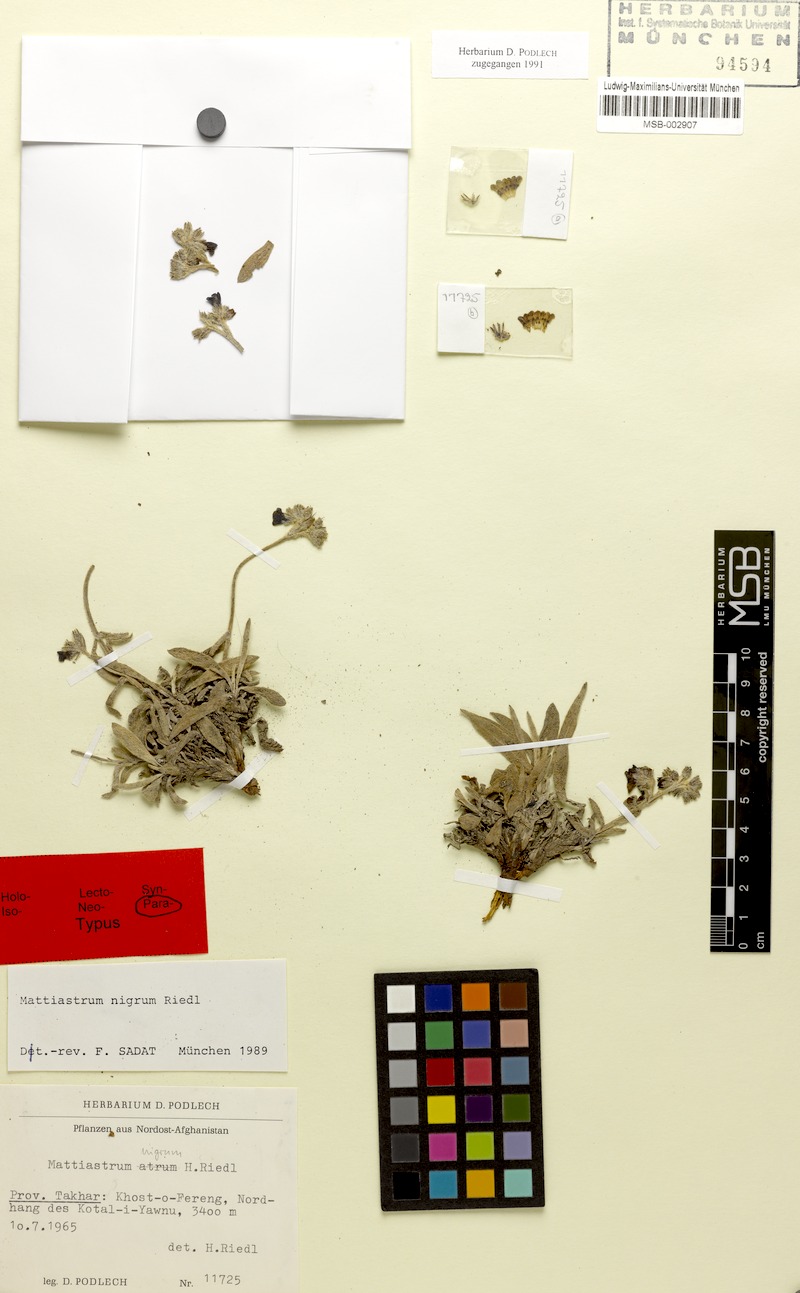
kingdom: Plantae
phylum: Tracheophyta
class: Magnoliopsida
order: Boraginales
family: Boraginaceae
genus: Paracaryum
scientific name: Paracaryum polyanthum
